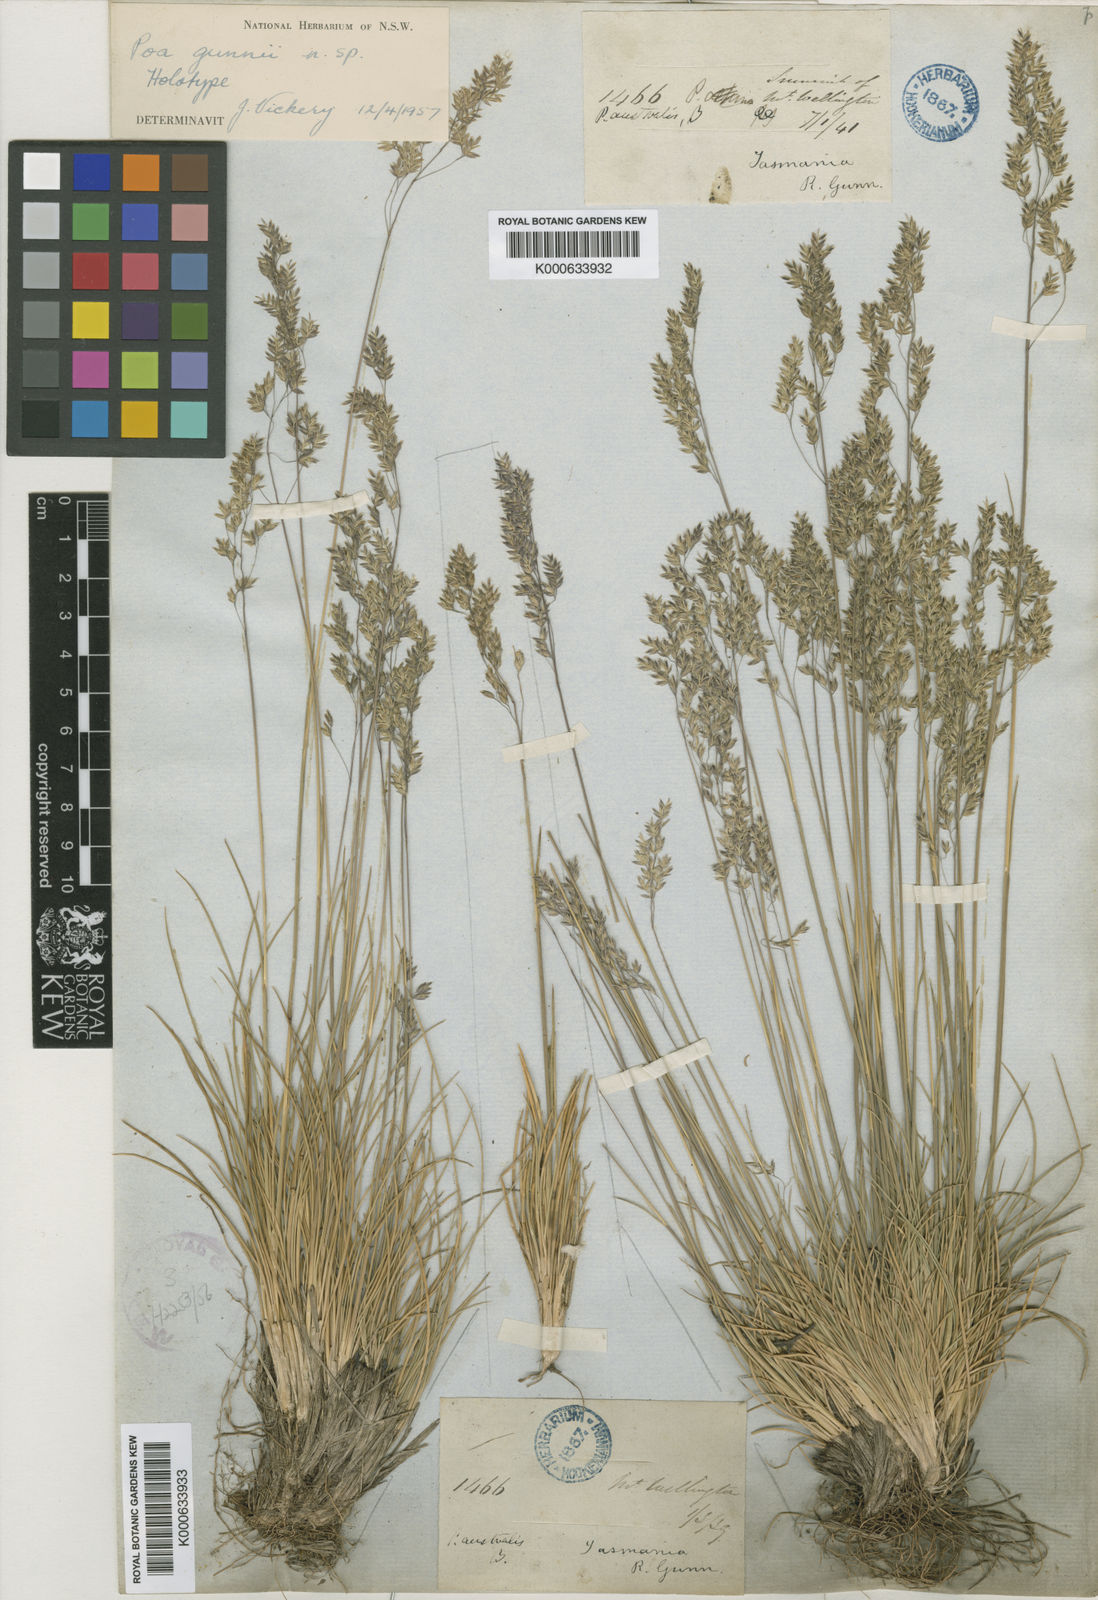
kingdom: Plantae
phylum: Tracheophyta
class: Liliopsida
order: Poales
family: Poaceae
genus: Poa
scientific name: Poa gunnii
